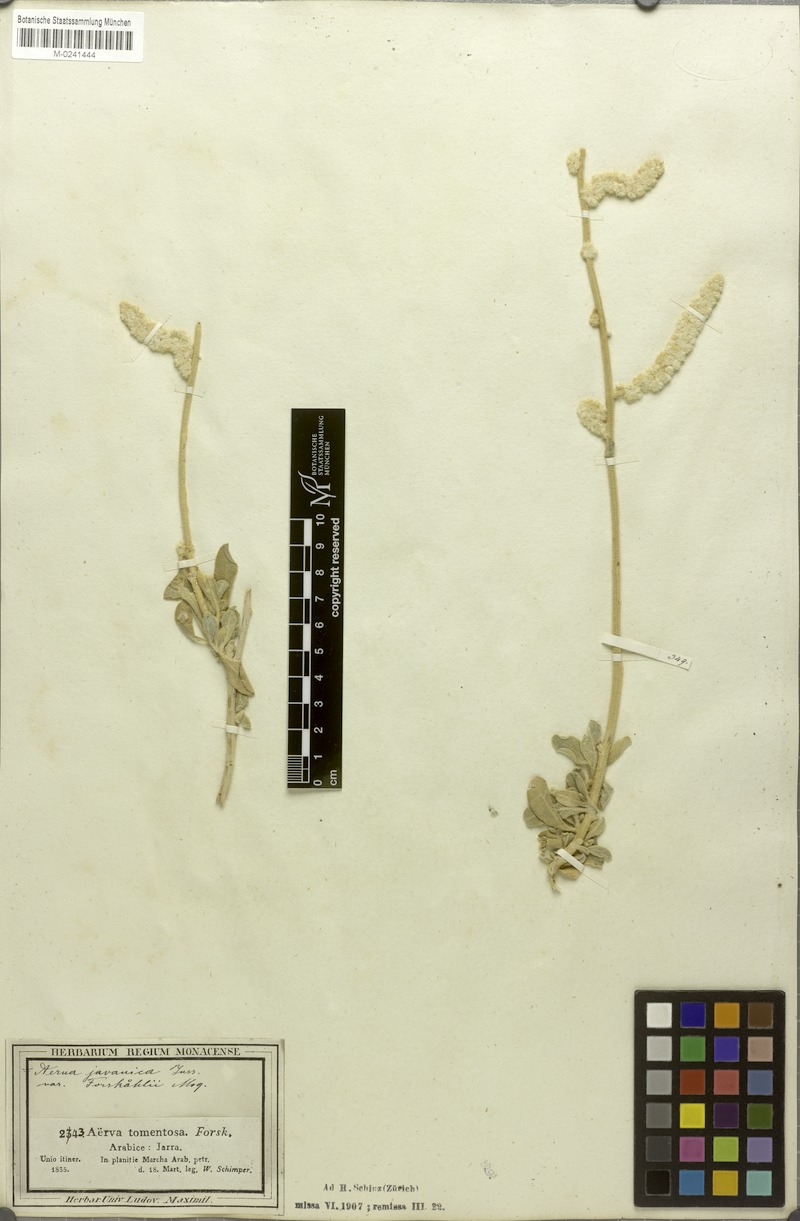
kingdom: Plantae
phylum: Tracheophyta
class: Magnoliopsida
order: Caryophyllales
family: Amaranthaceae
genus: Aerva
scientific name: Aerva javanica
